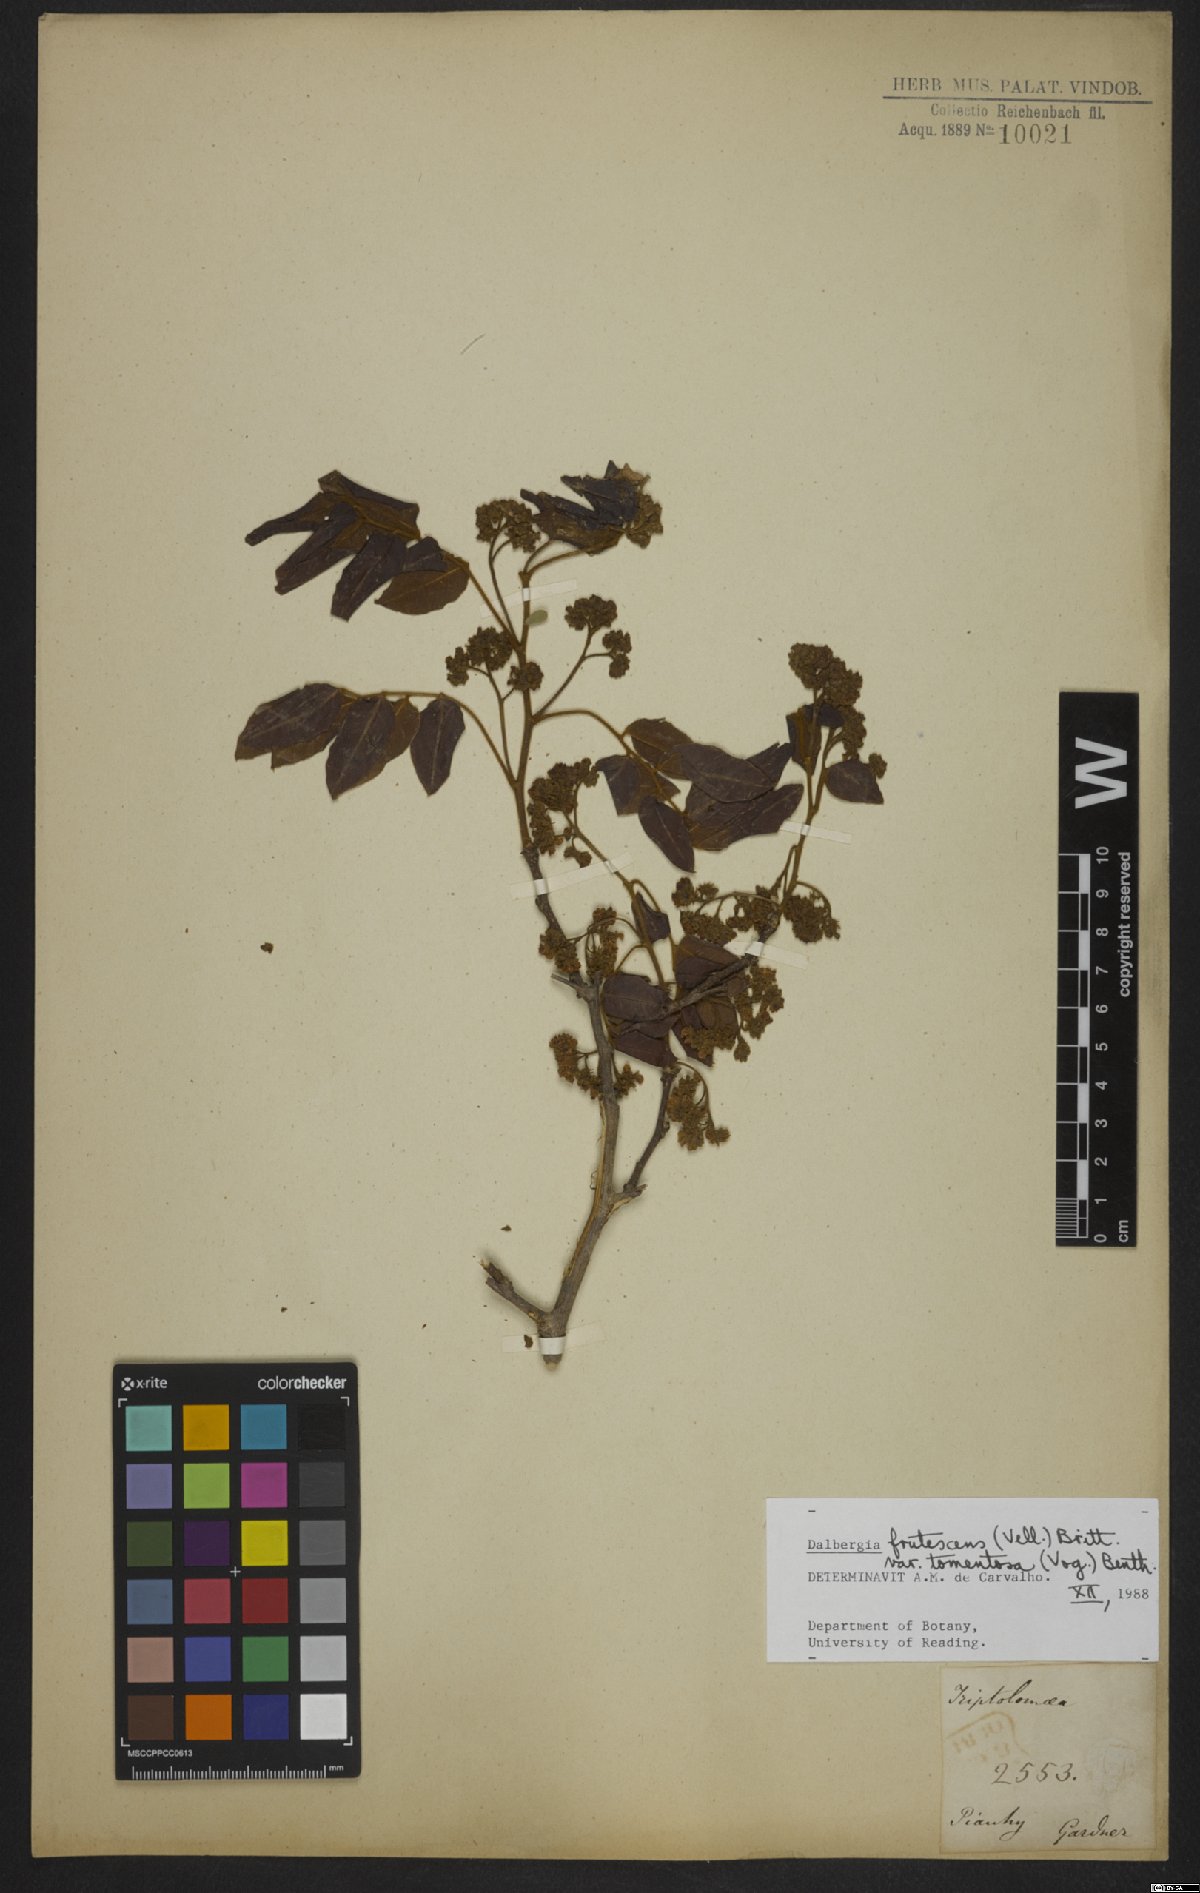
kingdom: Plantae
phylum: Tracheophyta
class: Magnoliopsida
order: Fabales
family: Fabaceae
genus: Dalbergia
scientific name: Dalbergia frutescens
